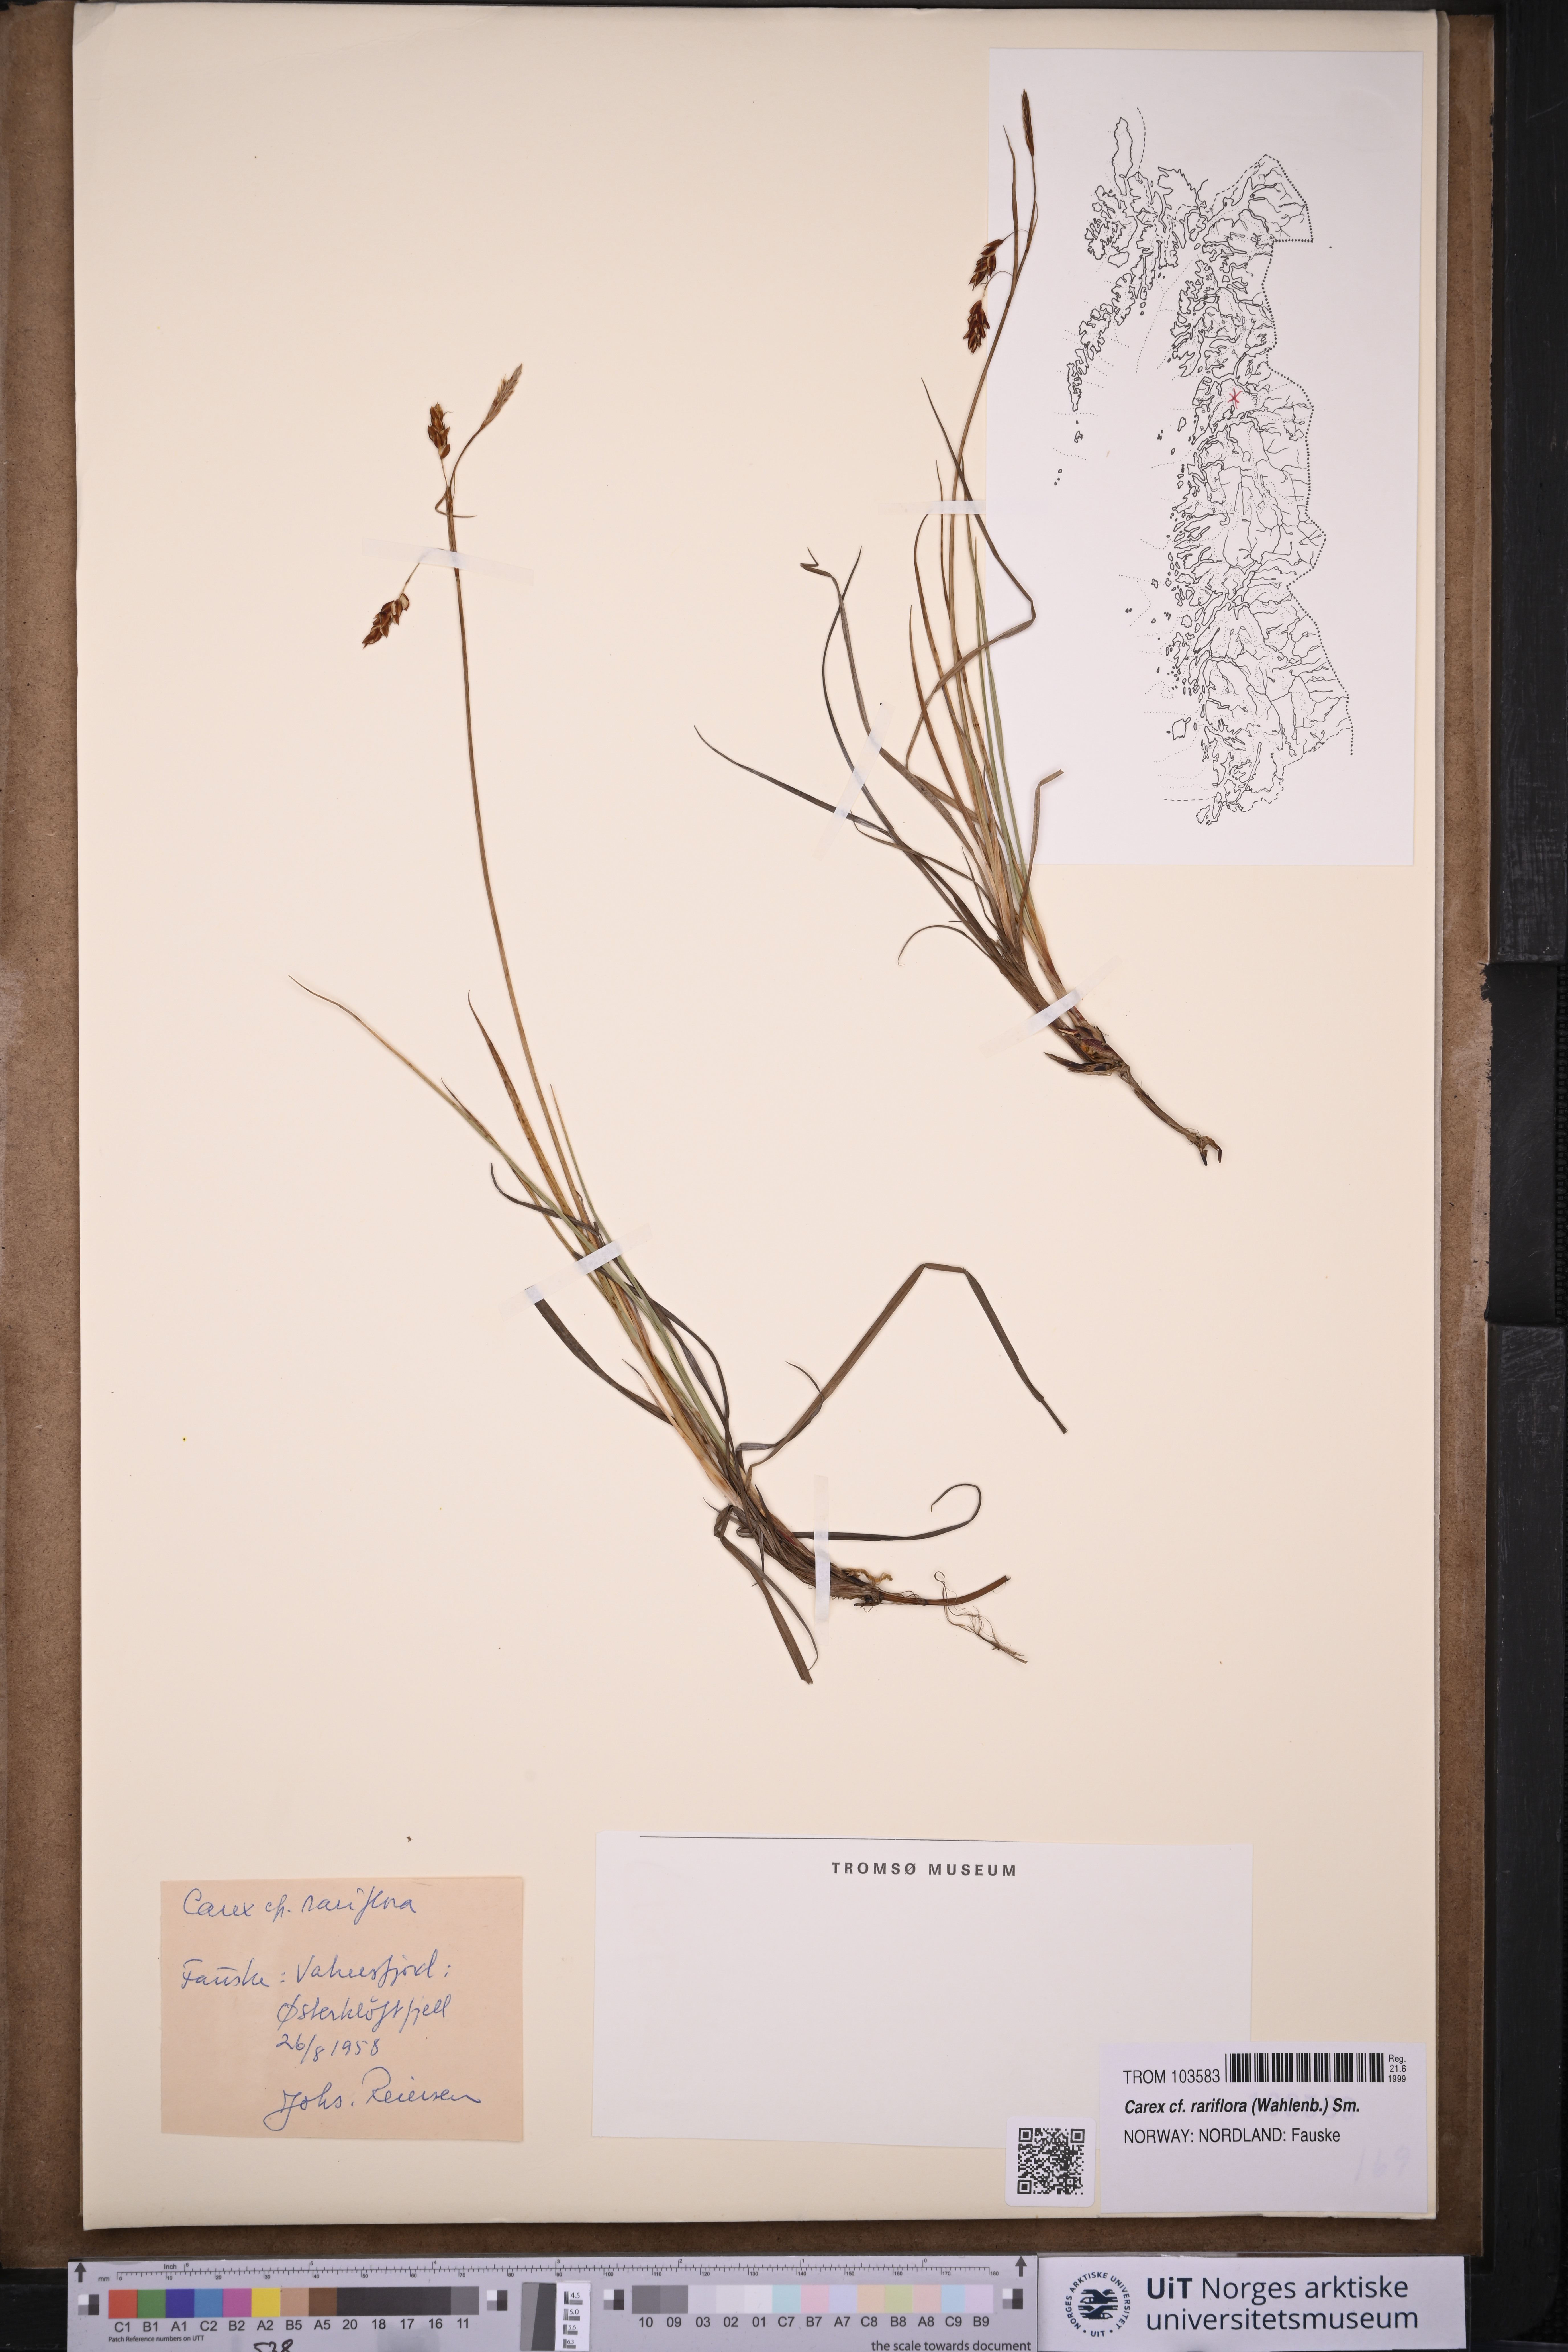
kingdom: Plantae
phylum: Tracheophyta
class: Liliopsida
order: Poales
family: Cyperaceae
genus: Carex
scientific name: Carex rariflora
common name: Loose-flowered alpine sedge
